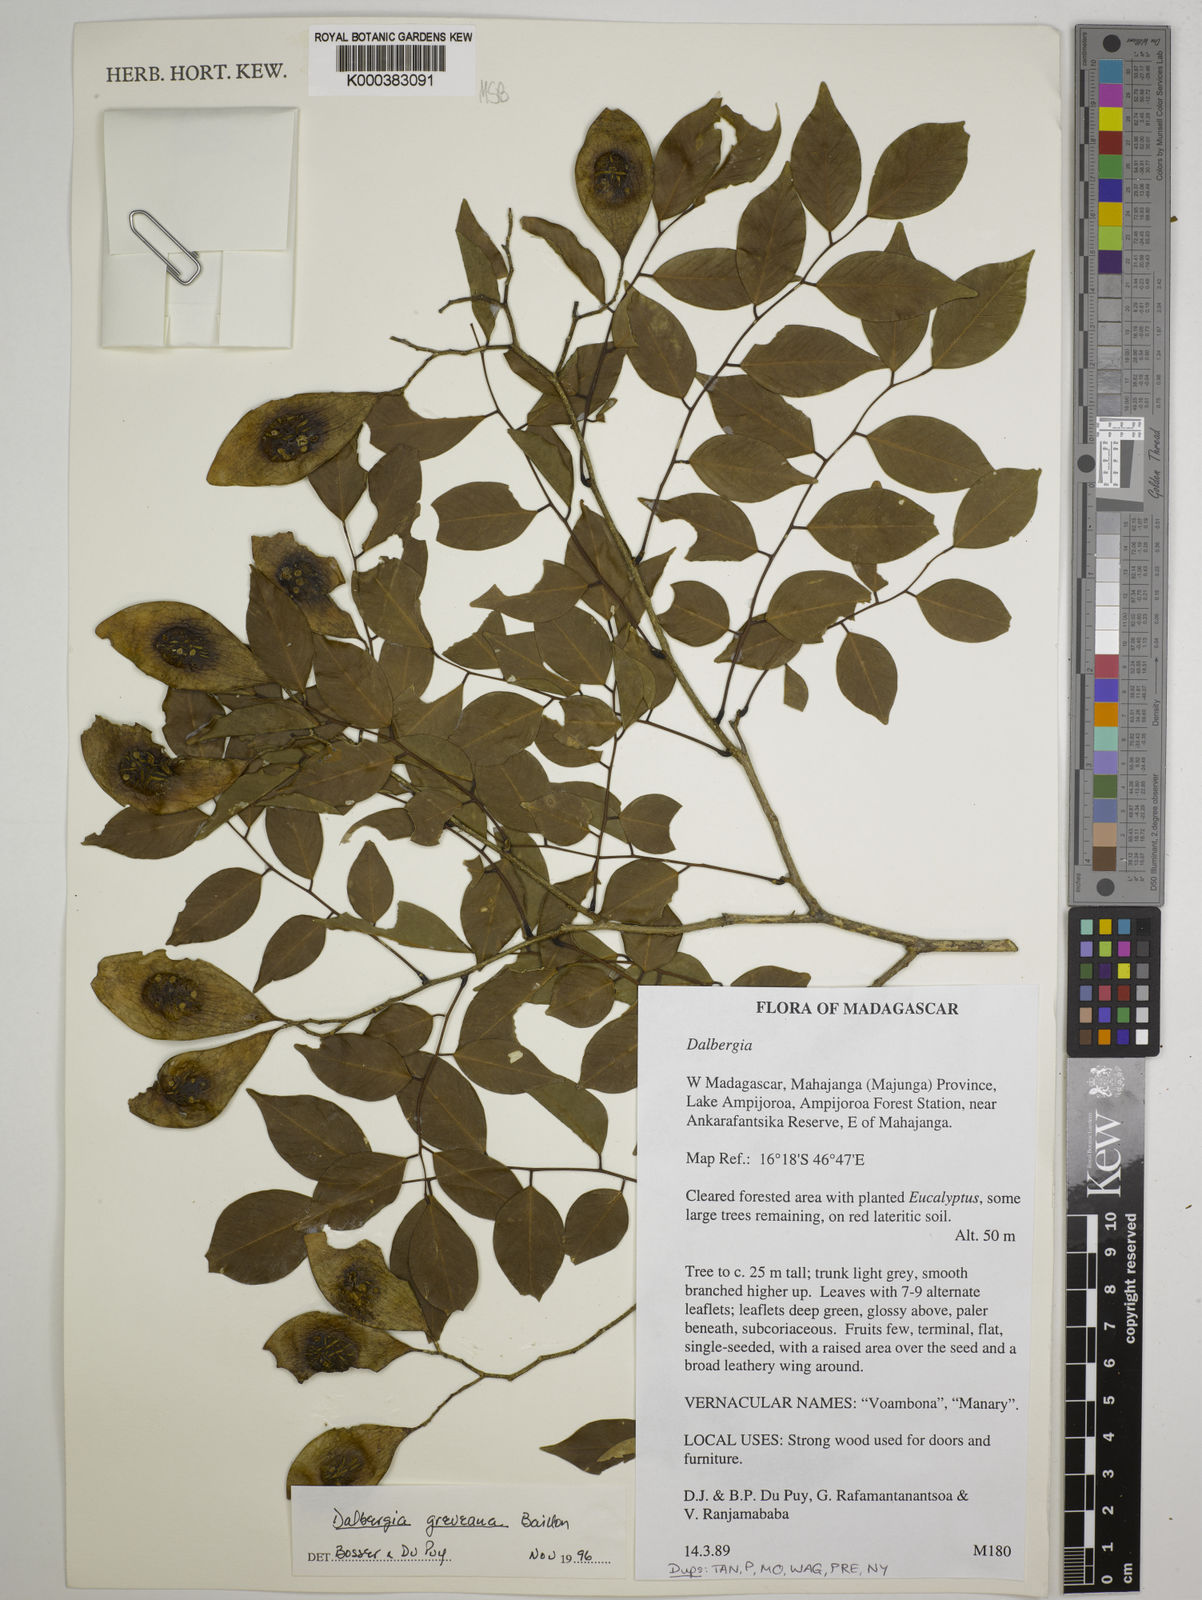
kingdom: Plantae
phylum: Tracheophyta
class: Magnoliopsida
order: Fabales
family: Fabaceae
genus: Dalbergia
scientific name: Dalbergia greveana
